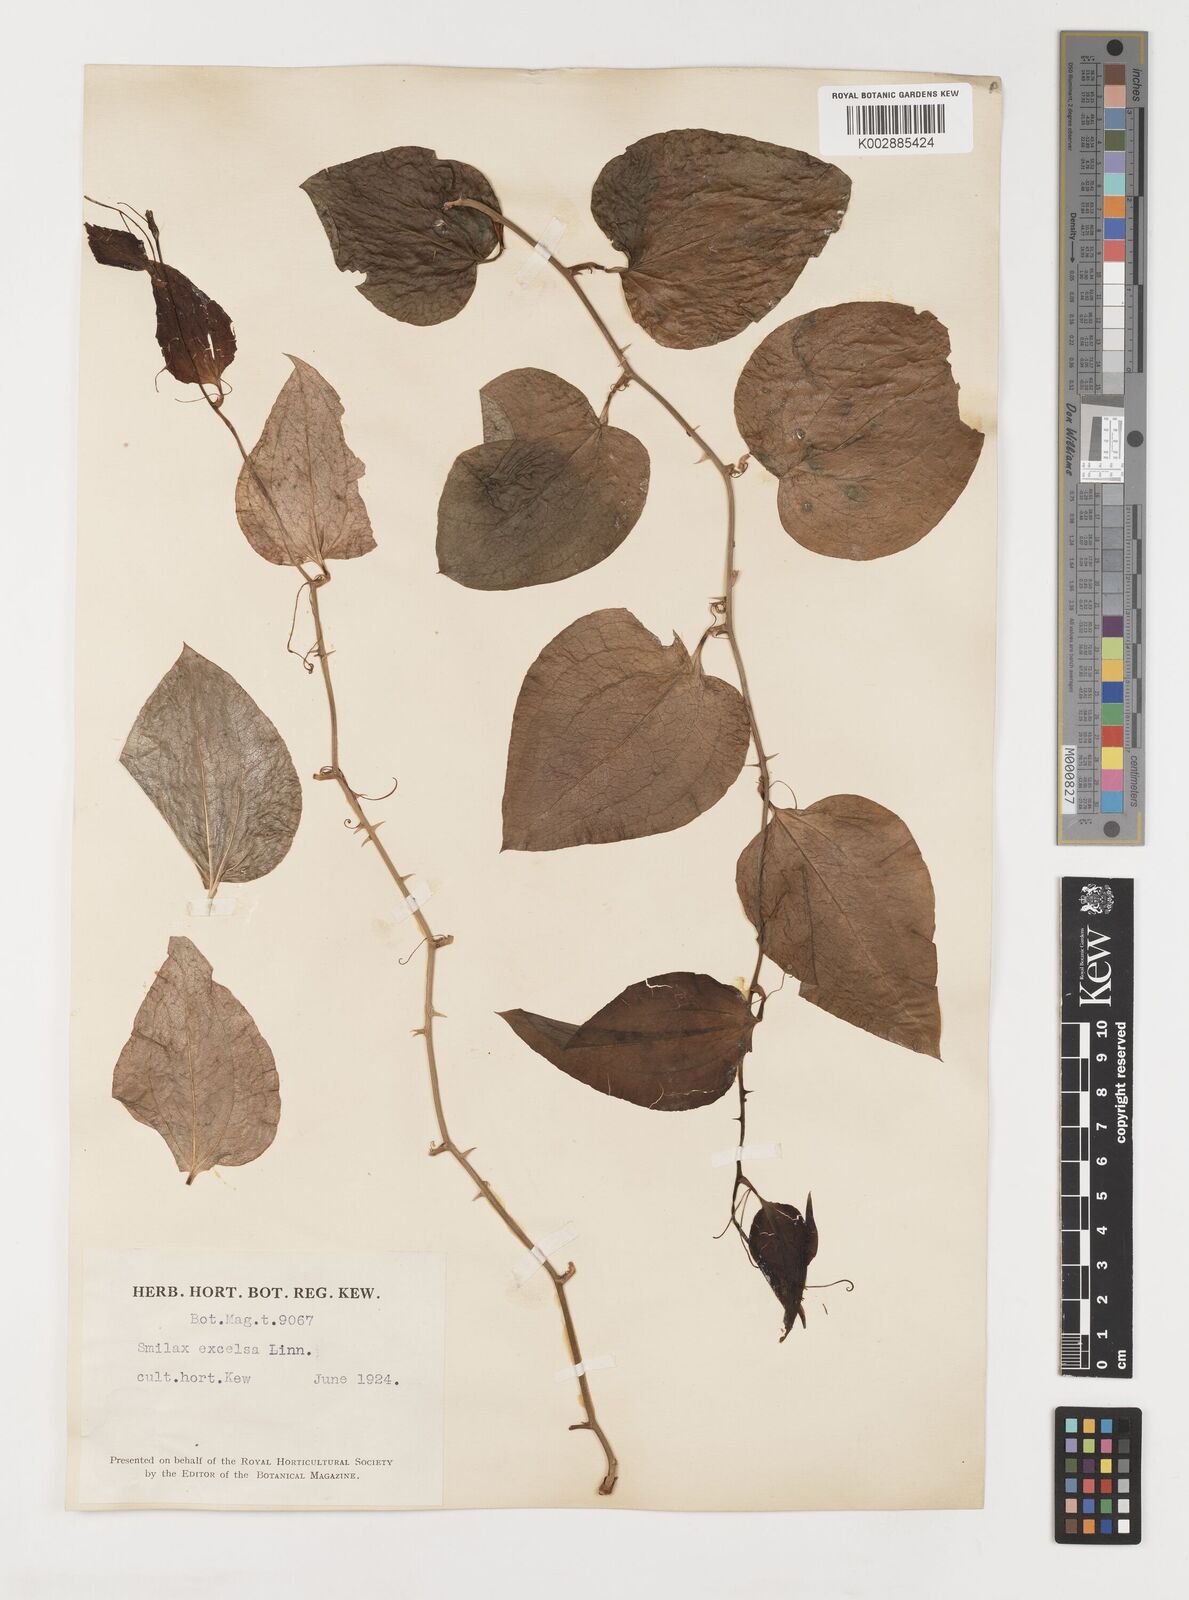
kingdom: Plantae
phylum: Tracheophyta
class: Liliopsida
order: Liliales
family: Smilacaceae
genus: Smilax
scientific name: Smilax excelsa
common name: Larger smilax
